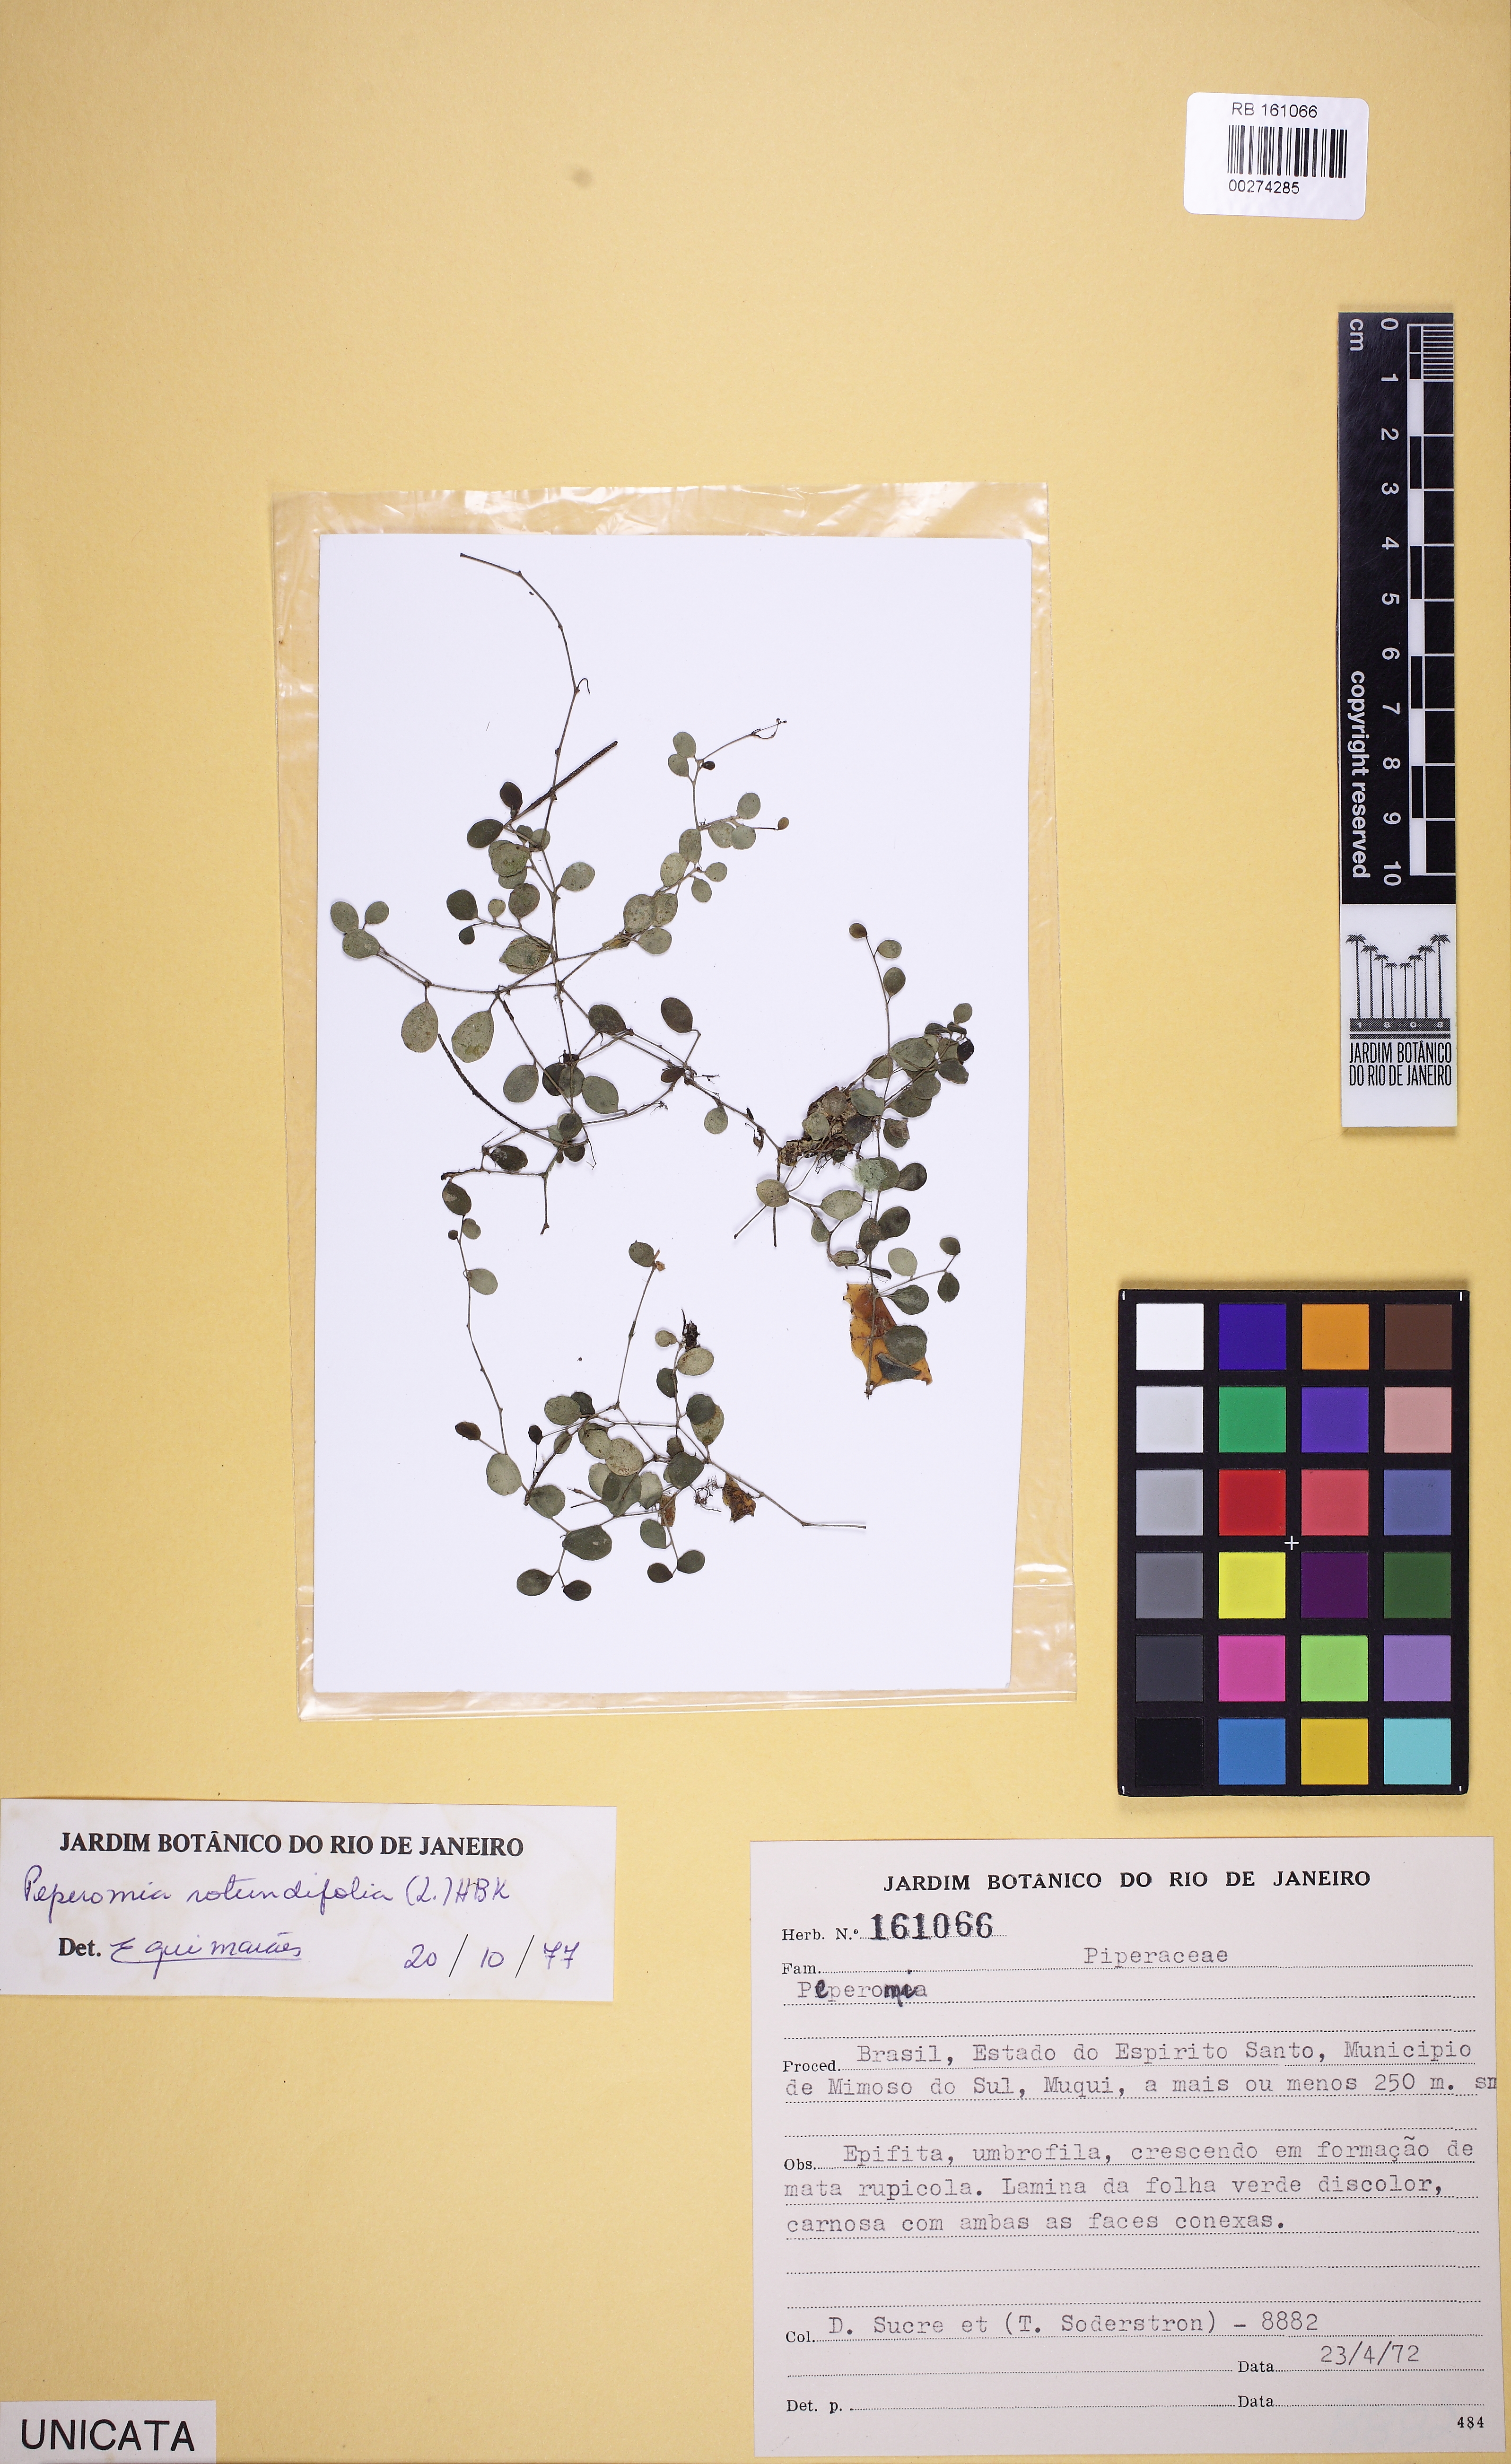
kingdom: Plantae
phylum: Tracheophyta
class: Magnoliopsida
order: Piperales
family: Piperaceae
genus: Peperomia
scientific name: Peperomia
